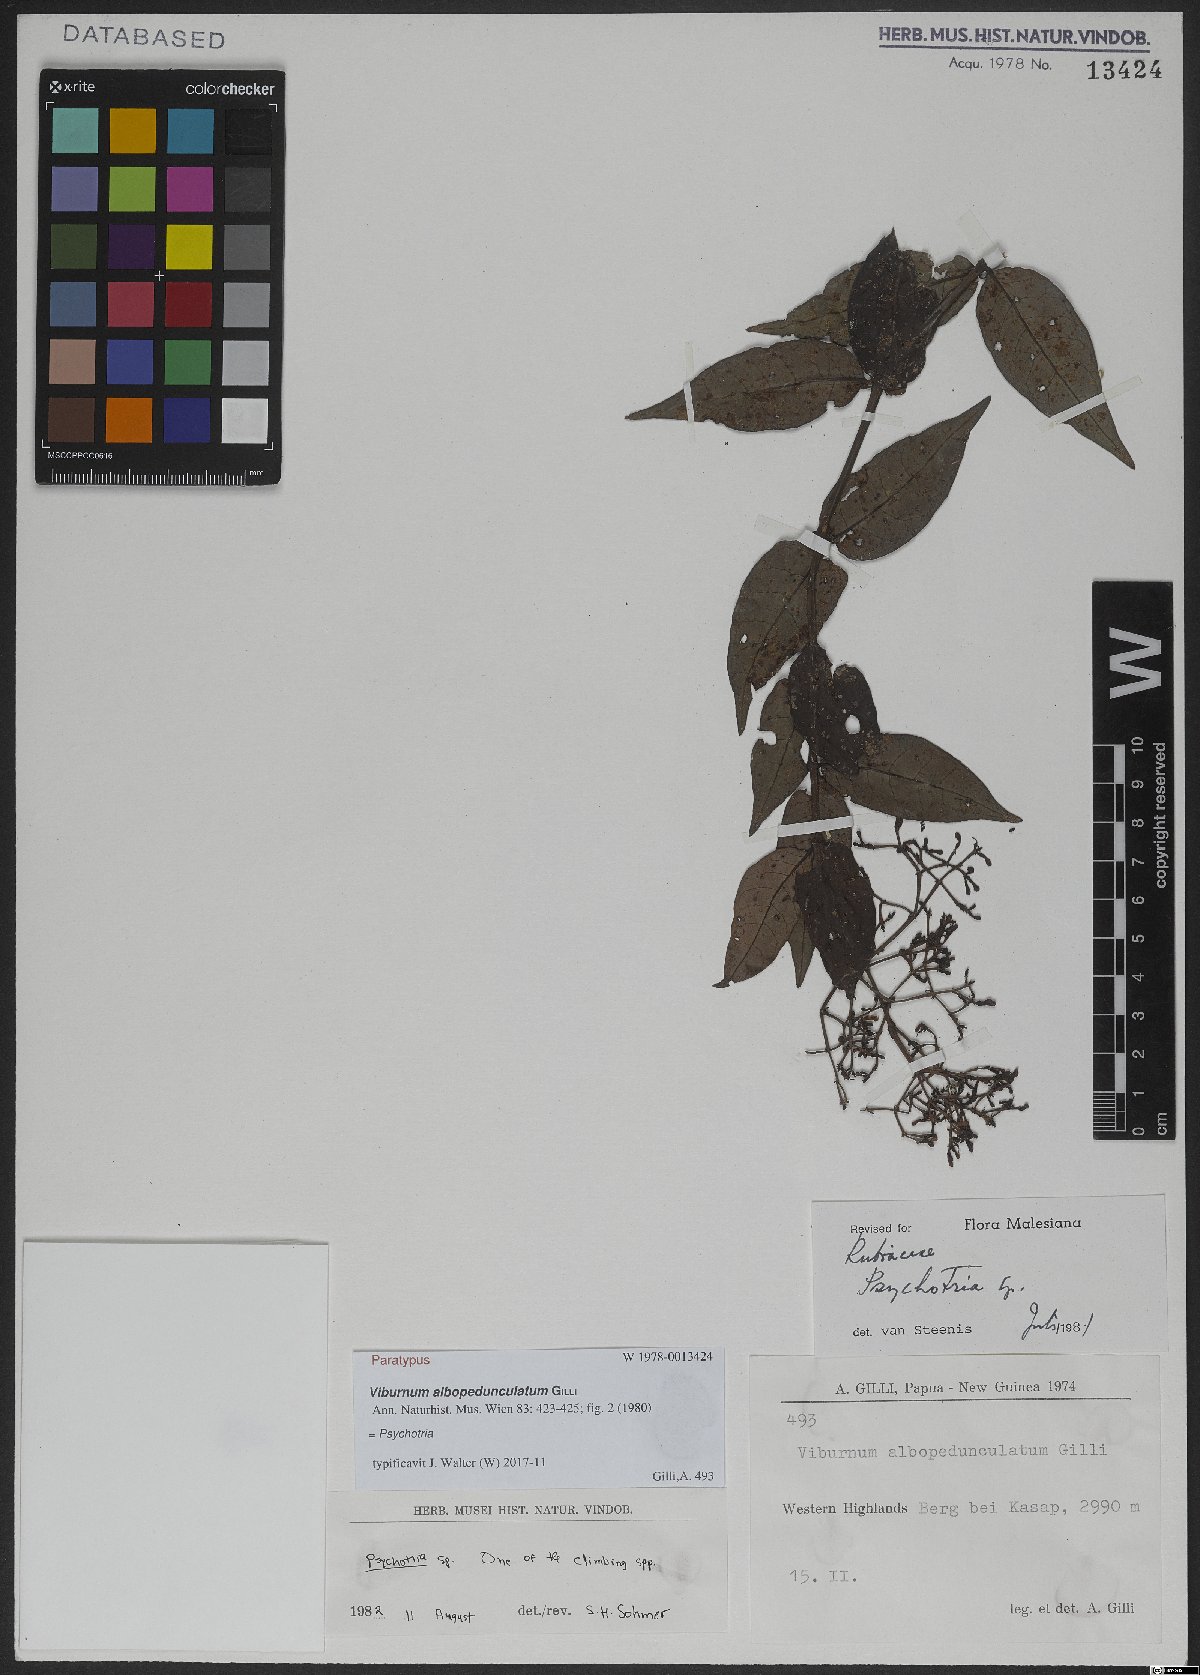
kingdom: Plantae
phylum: Tracheophyta
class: Magnoliopsida
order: Gentianales
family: Rubiaceae
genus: Psychotria
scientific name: Psychotria
